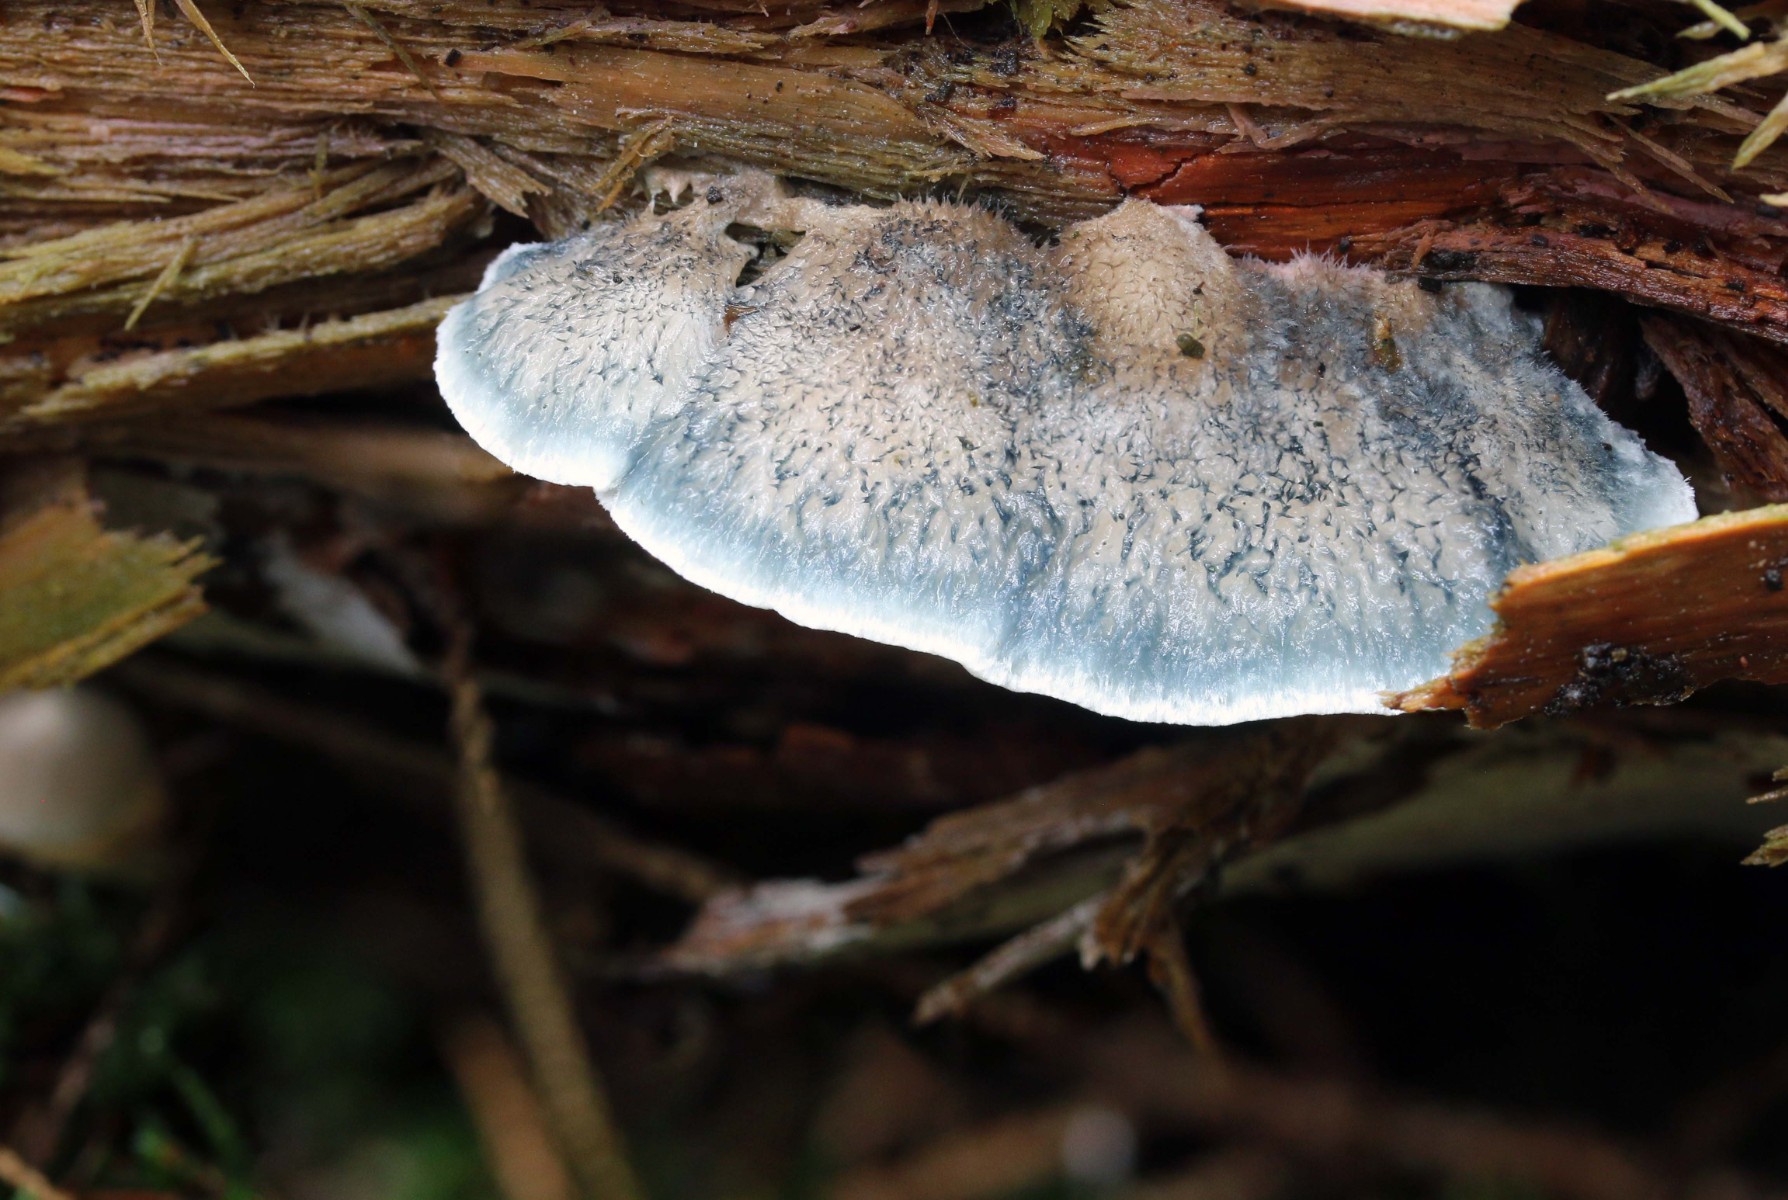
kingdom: Fungi
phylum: Basidiomycota
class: Agaricomycetes
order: Polyporales
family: Polyporaceae
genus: Cyanosporus
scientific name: Cyanosporus caesius
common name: blålig kødporesvamp
